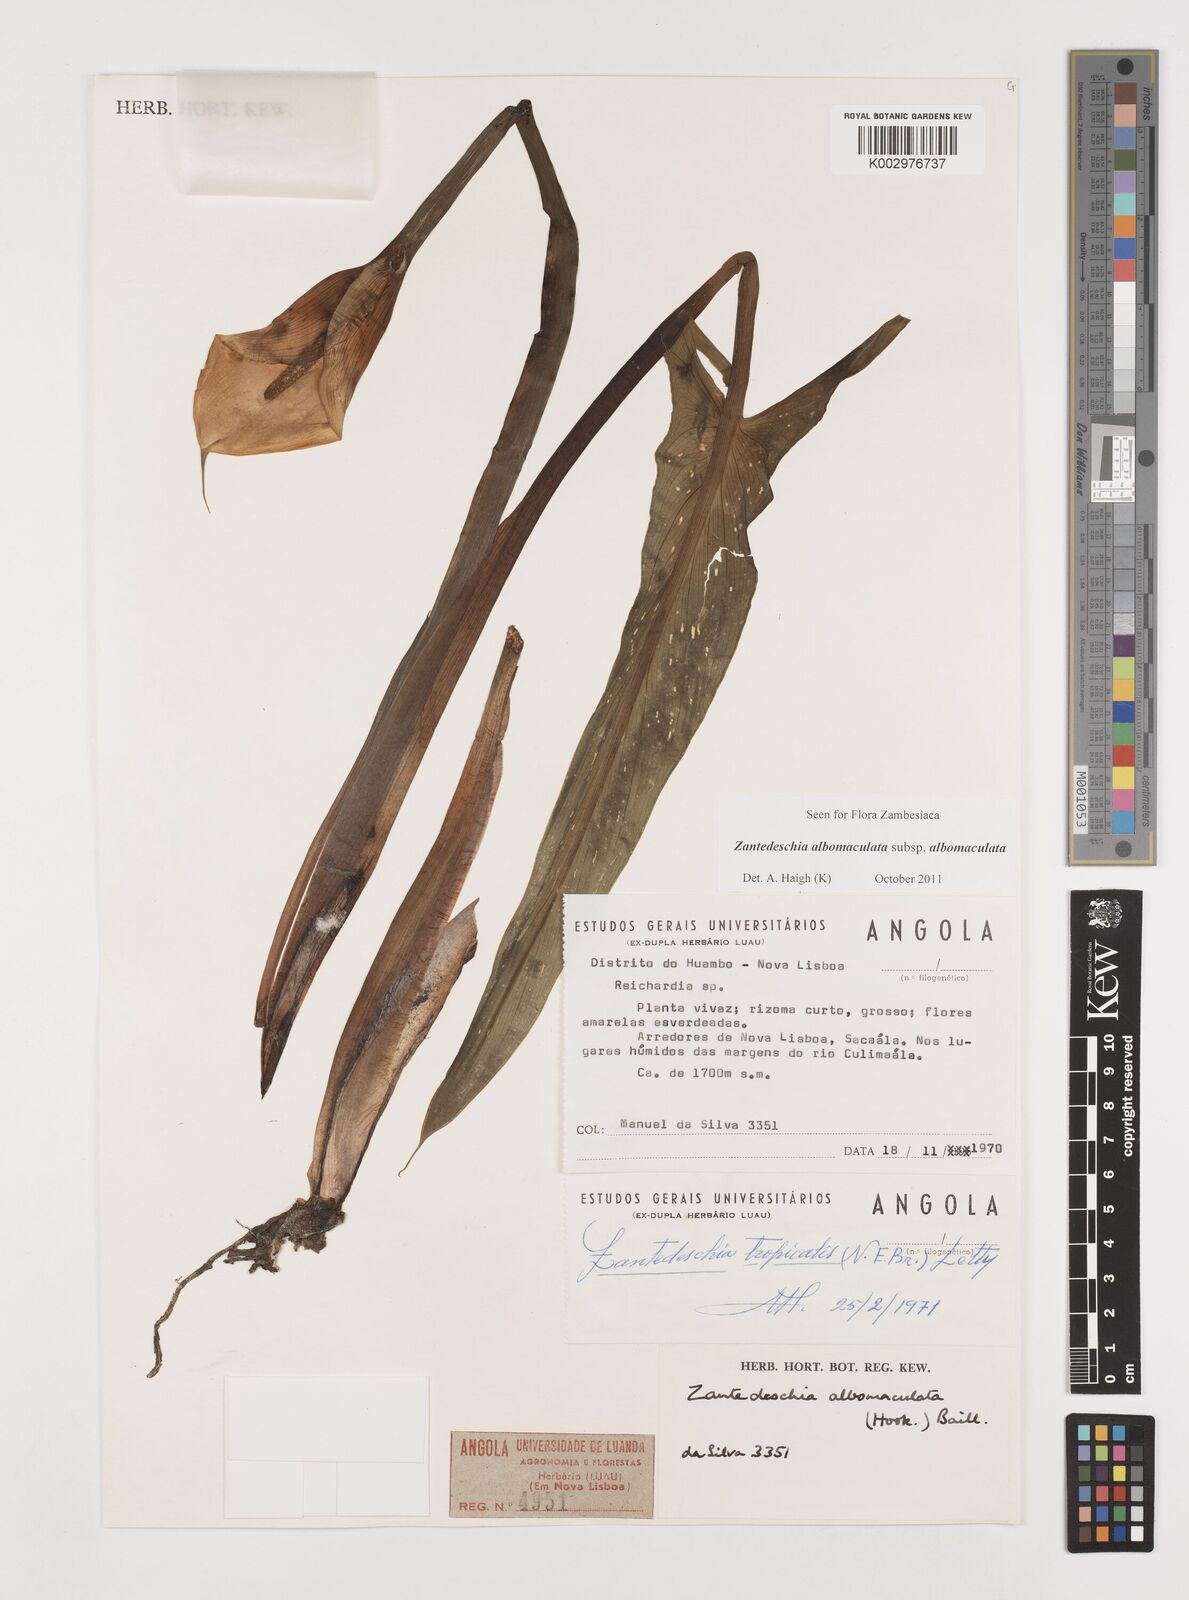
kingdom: Plantae
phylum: Tracheophyta
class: Liliopsida
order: Alismatales
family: Araceae
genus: Zantedeschia
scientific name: Zantedeschia albomaculata
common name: Spotted calla lily
